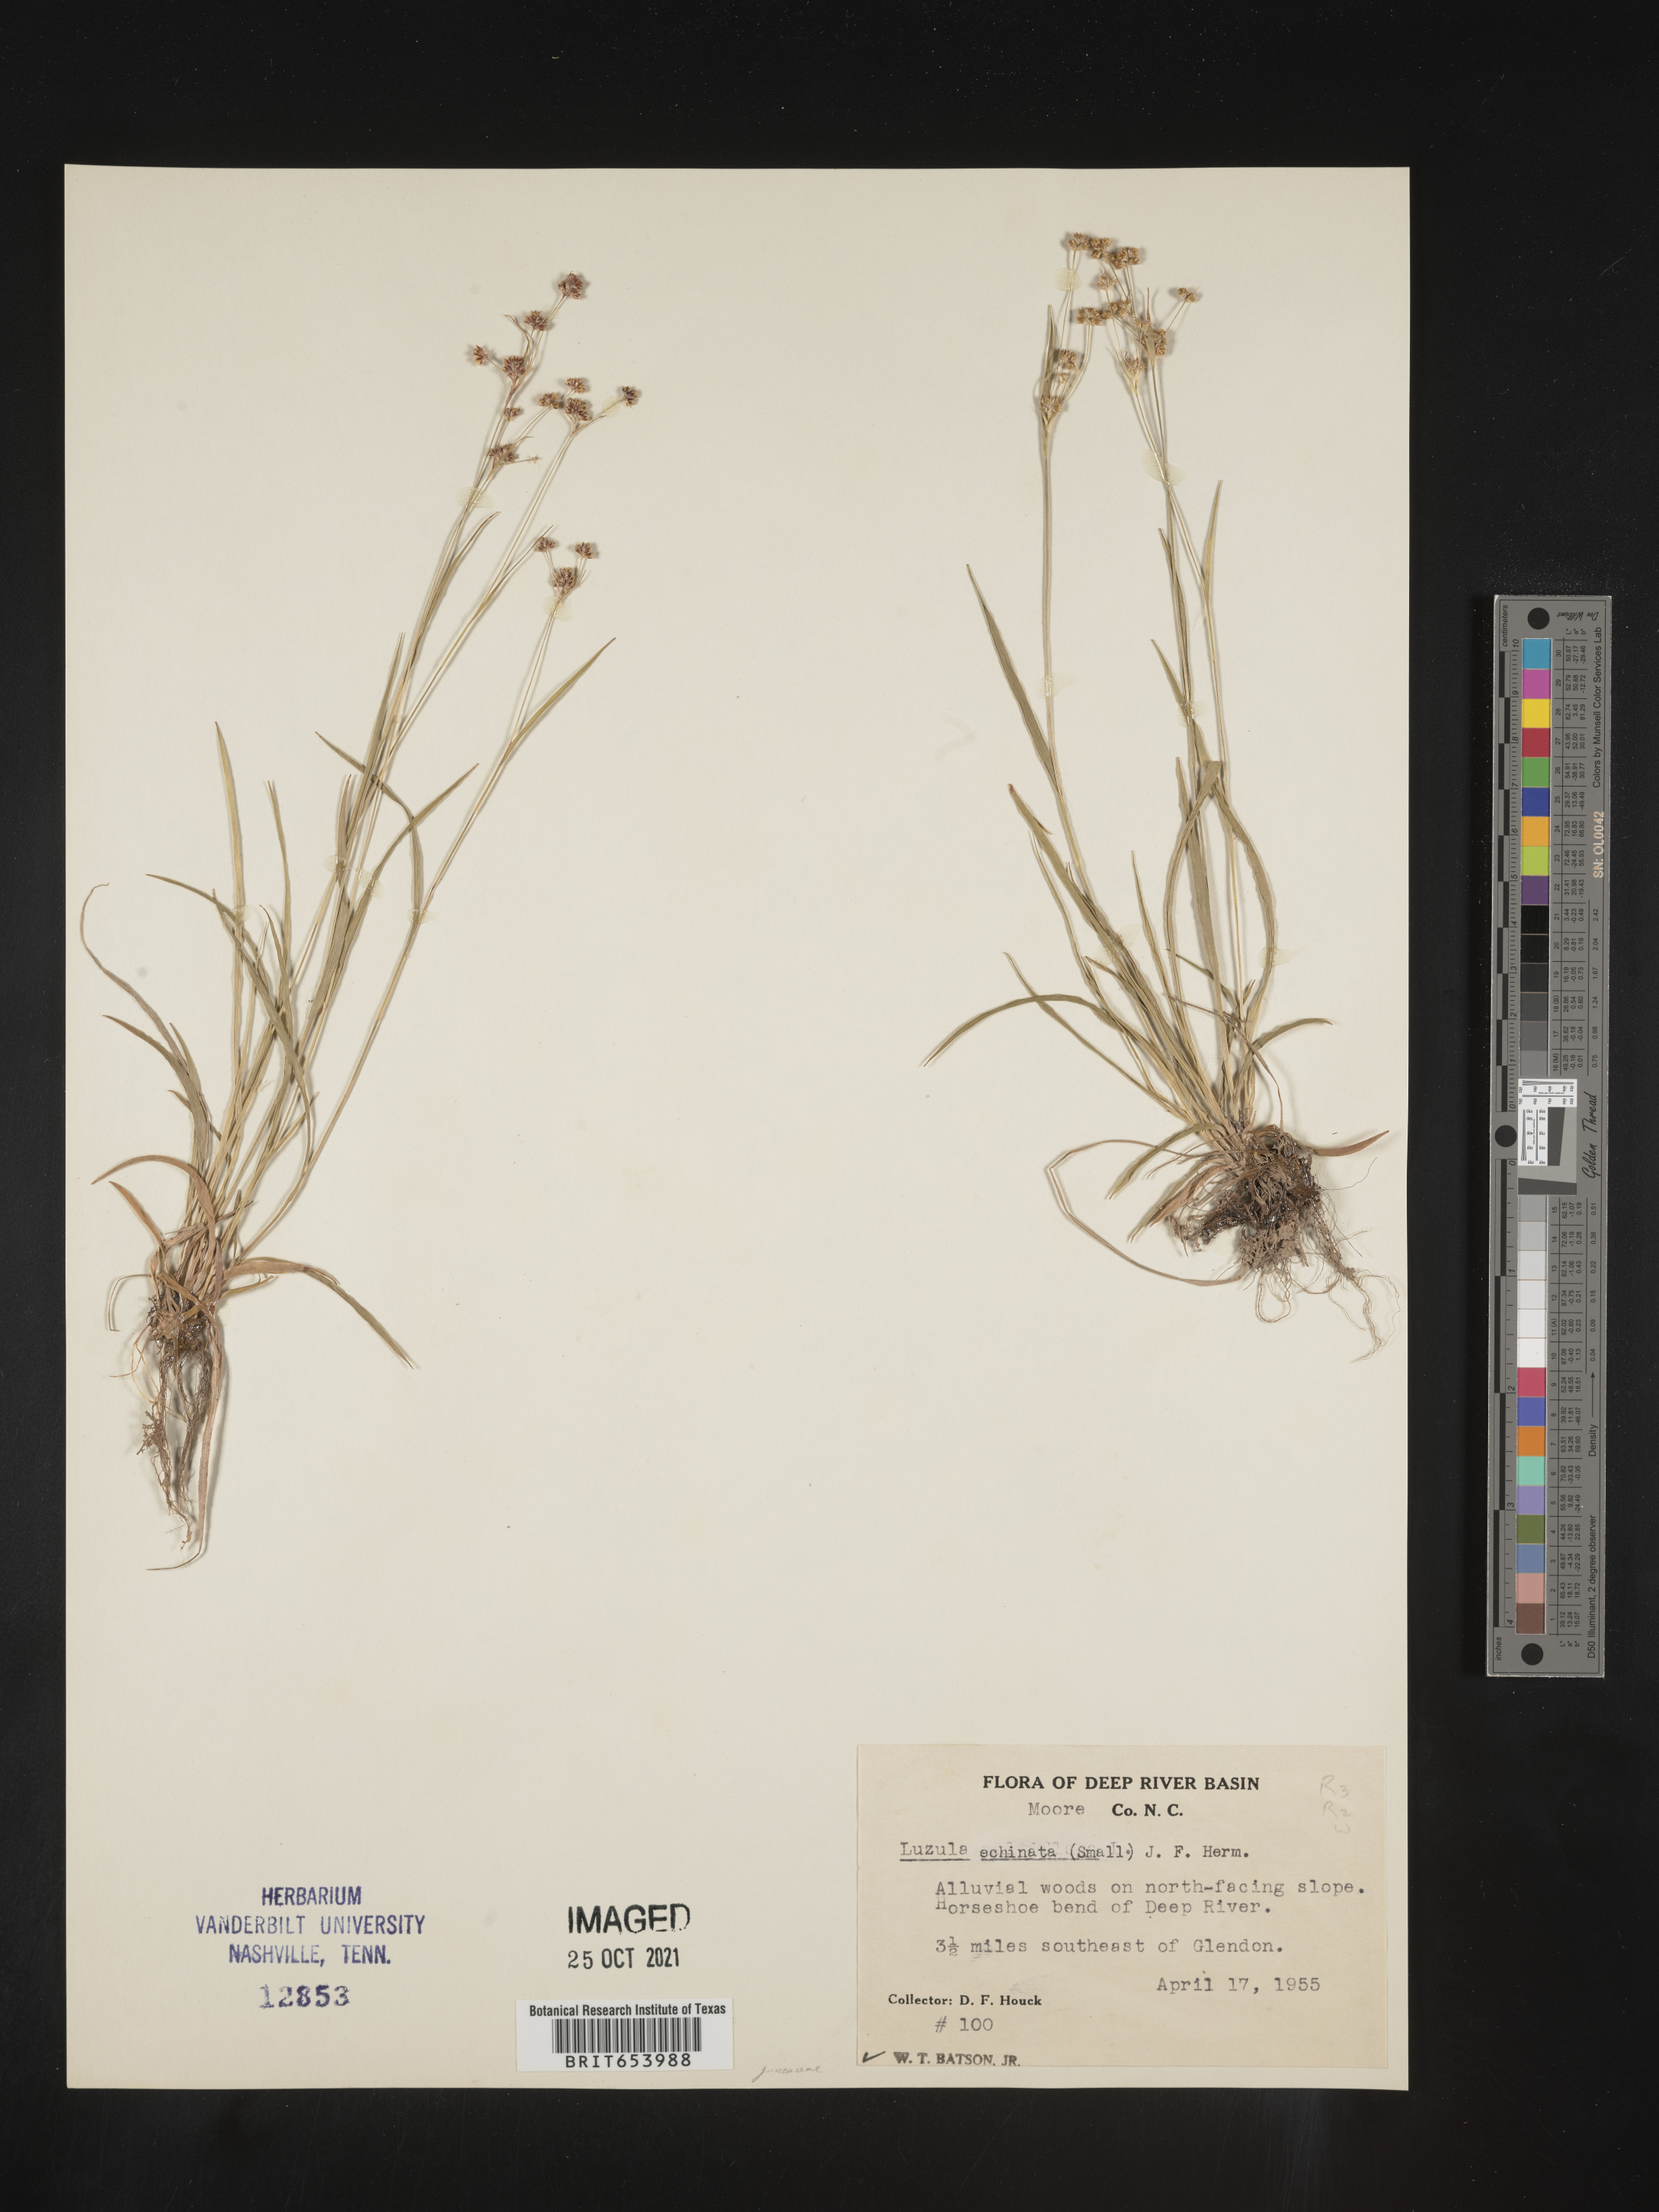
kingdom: Plantae
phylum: Tracheophyta
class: Liliopsida
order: Poales
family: Juncaceae
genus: Luzula
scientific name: Luzula echinata
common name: Hedgehog woodrush
